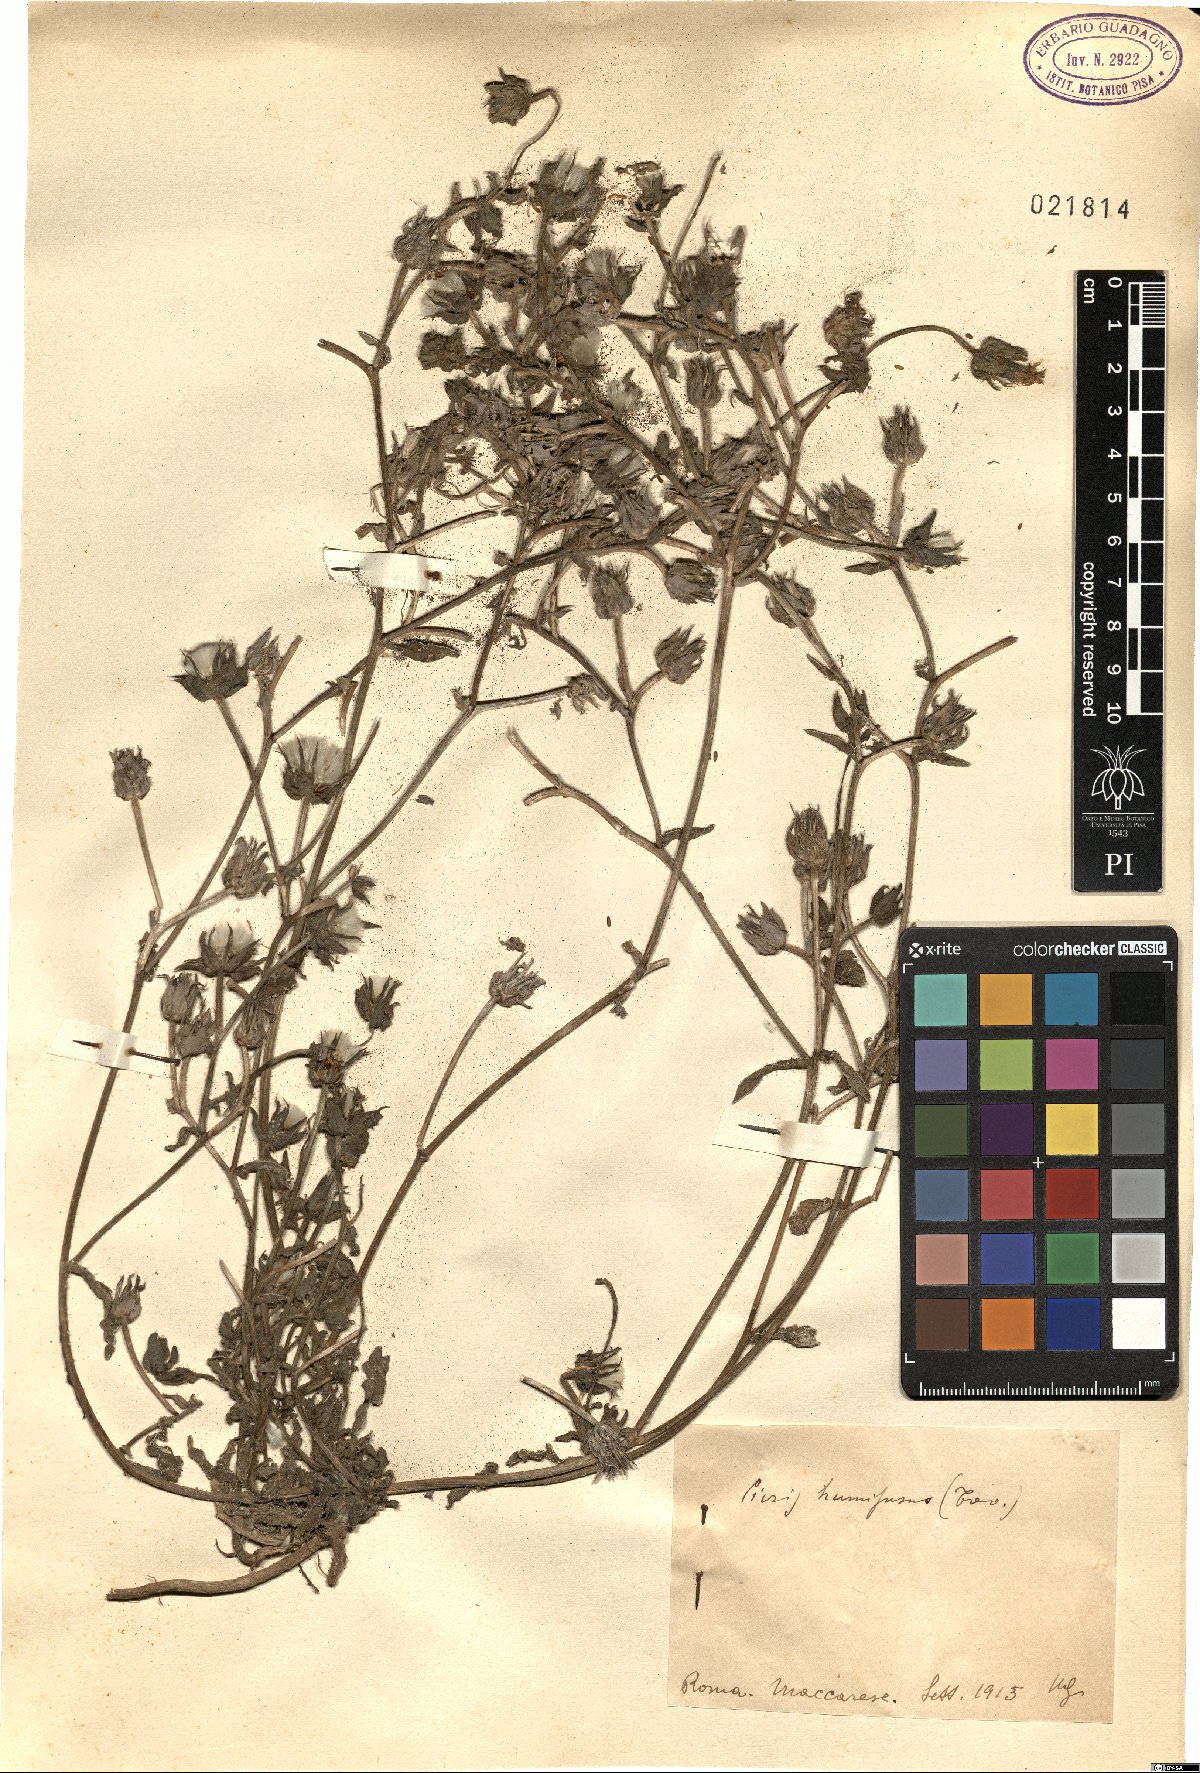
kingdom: Plantae
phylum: Tracheophyta
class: Magnoliopsida
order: Asterales
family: Asteraceae
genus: Helminthotheca
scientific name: Helminthotheca echioides
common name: Ox-tongue
